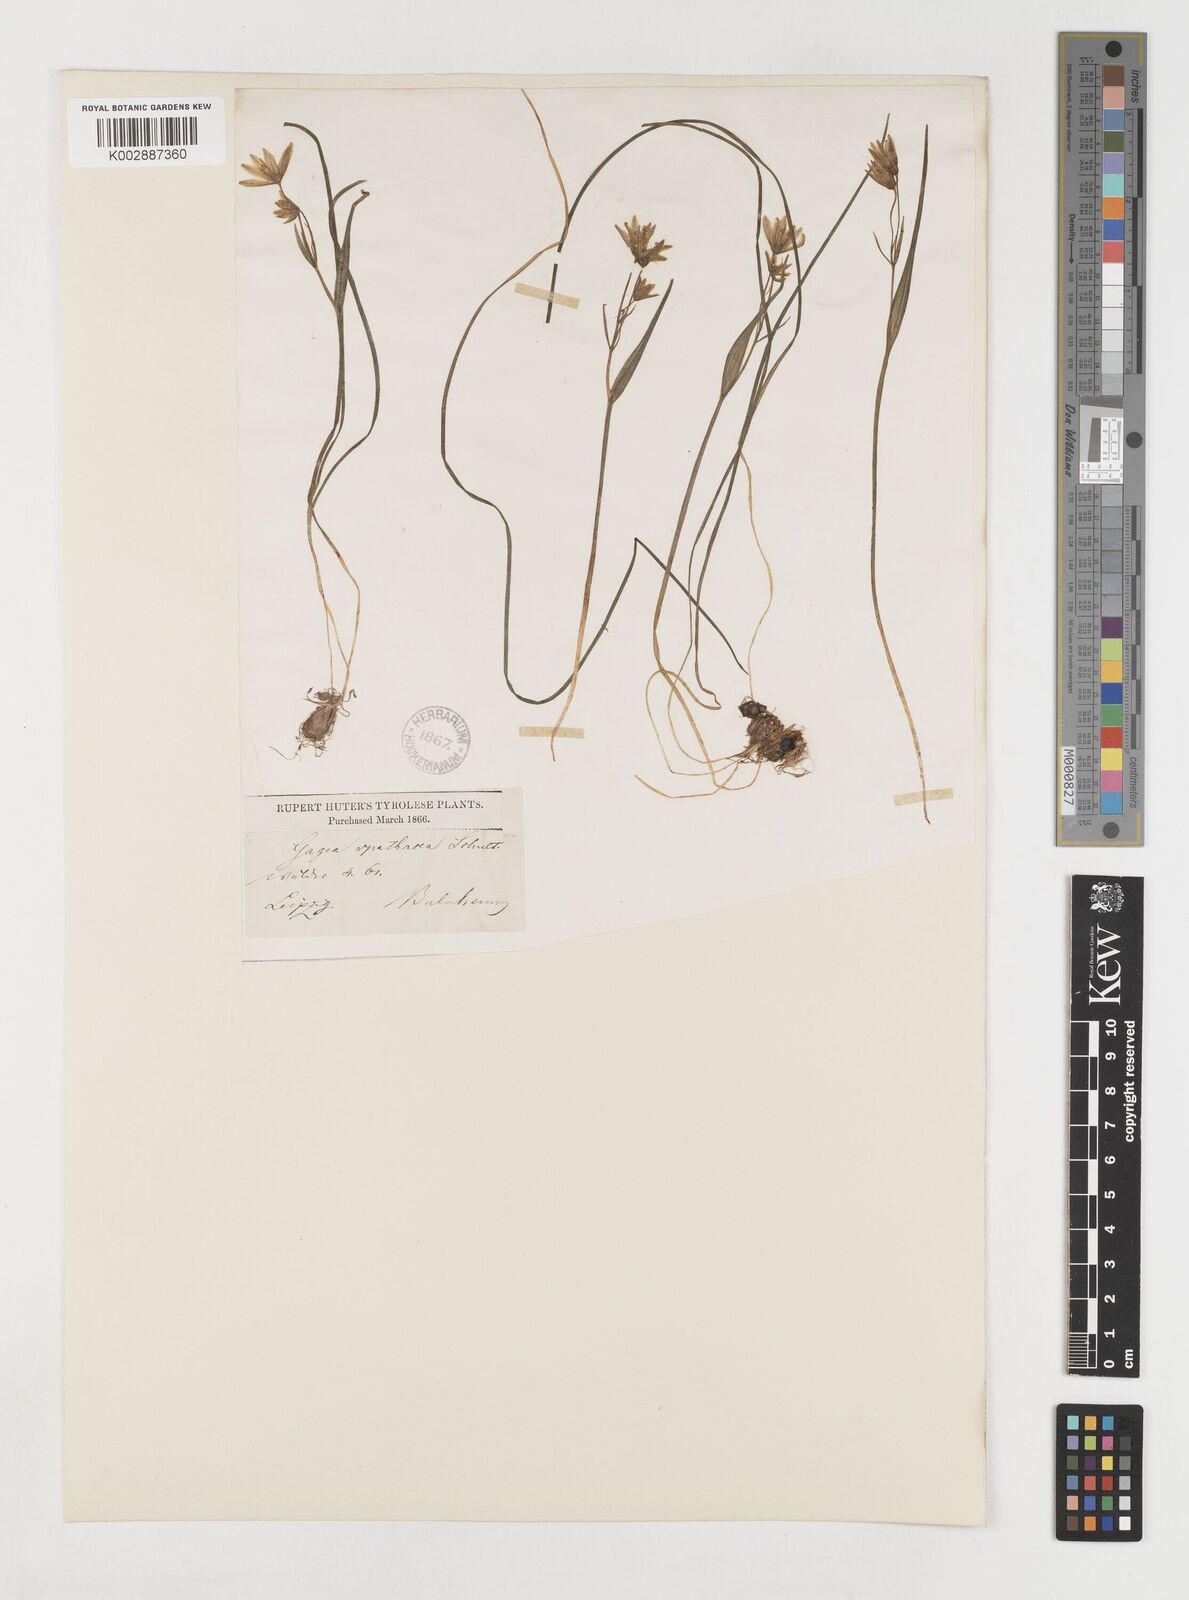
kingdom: Plantae
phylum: Tracheophyta
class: Liliopsida
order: Liliales
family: Liliaceae
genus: Gagea
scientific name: Gagea spathacea
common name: Belgian gagea
